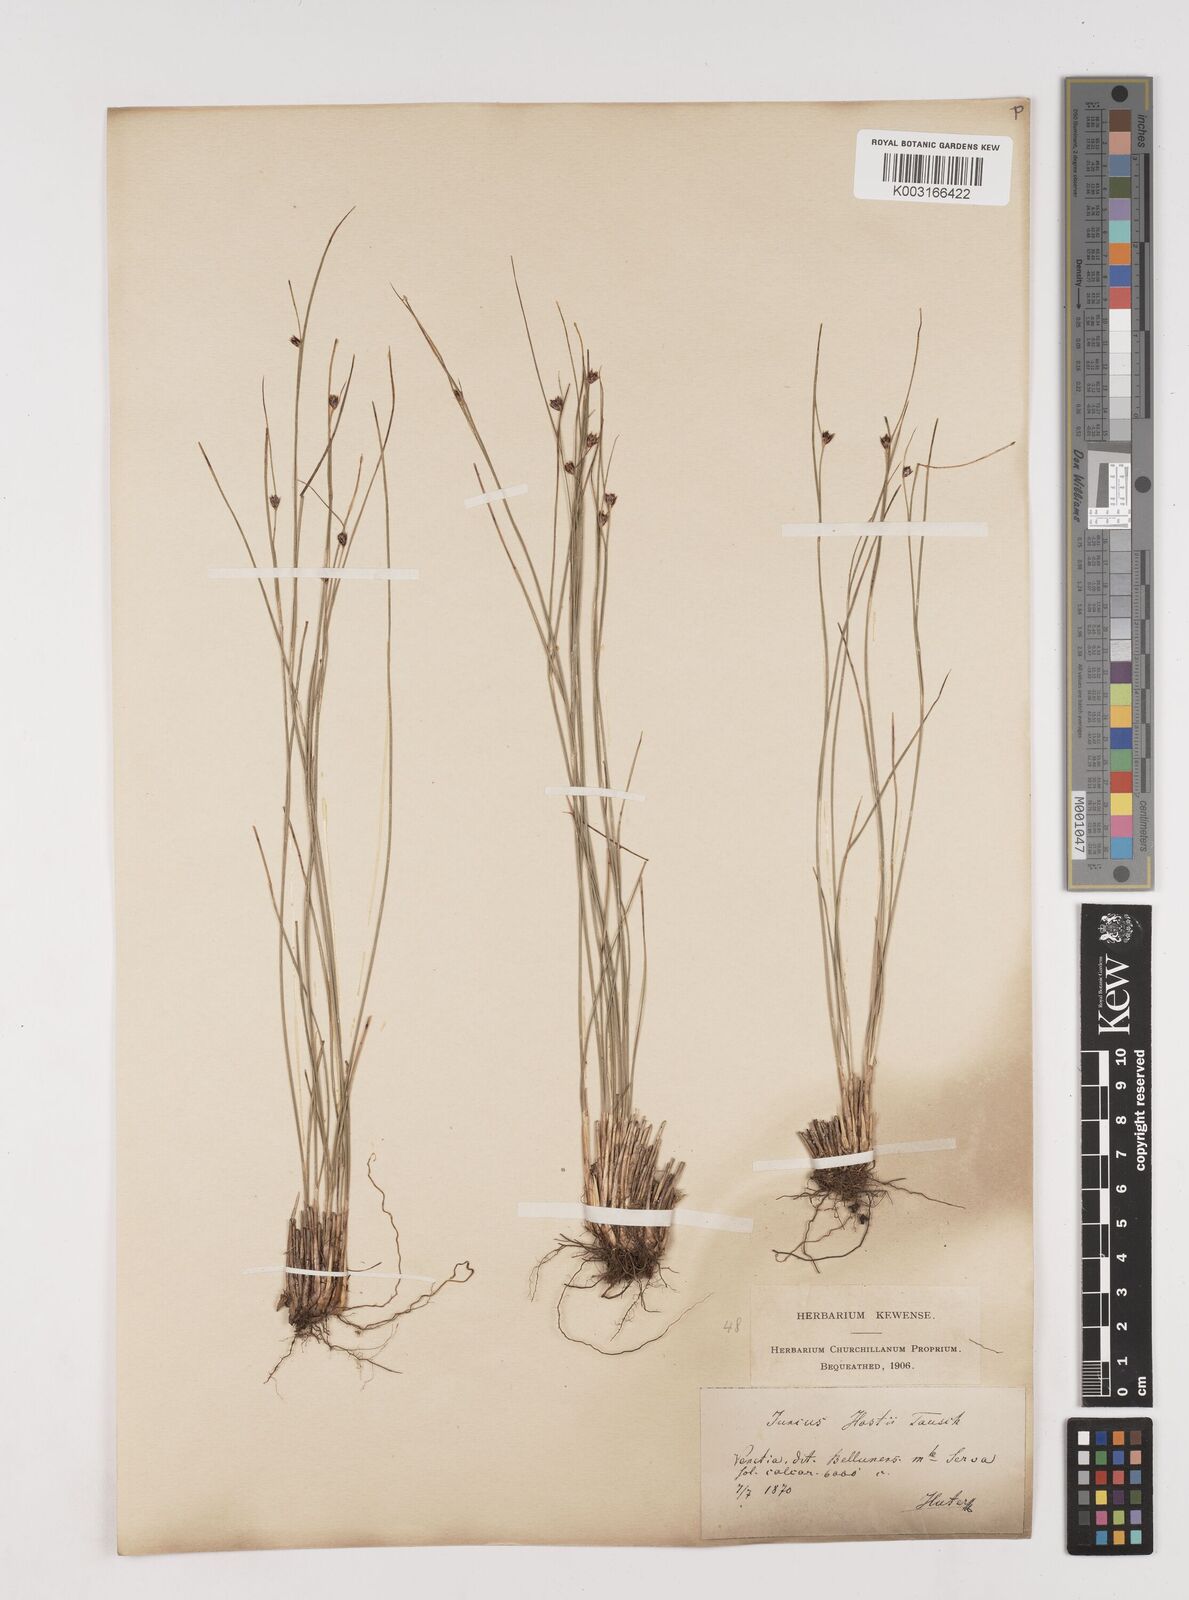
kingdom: Plantae
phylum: Tracheophyta
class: Liliopsida
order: Poales
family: Juncaceae
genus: Oreojuncus
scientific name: Oreojuncus trifidus
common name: Highland rush
